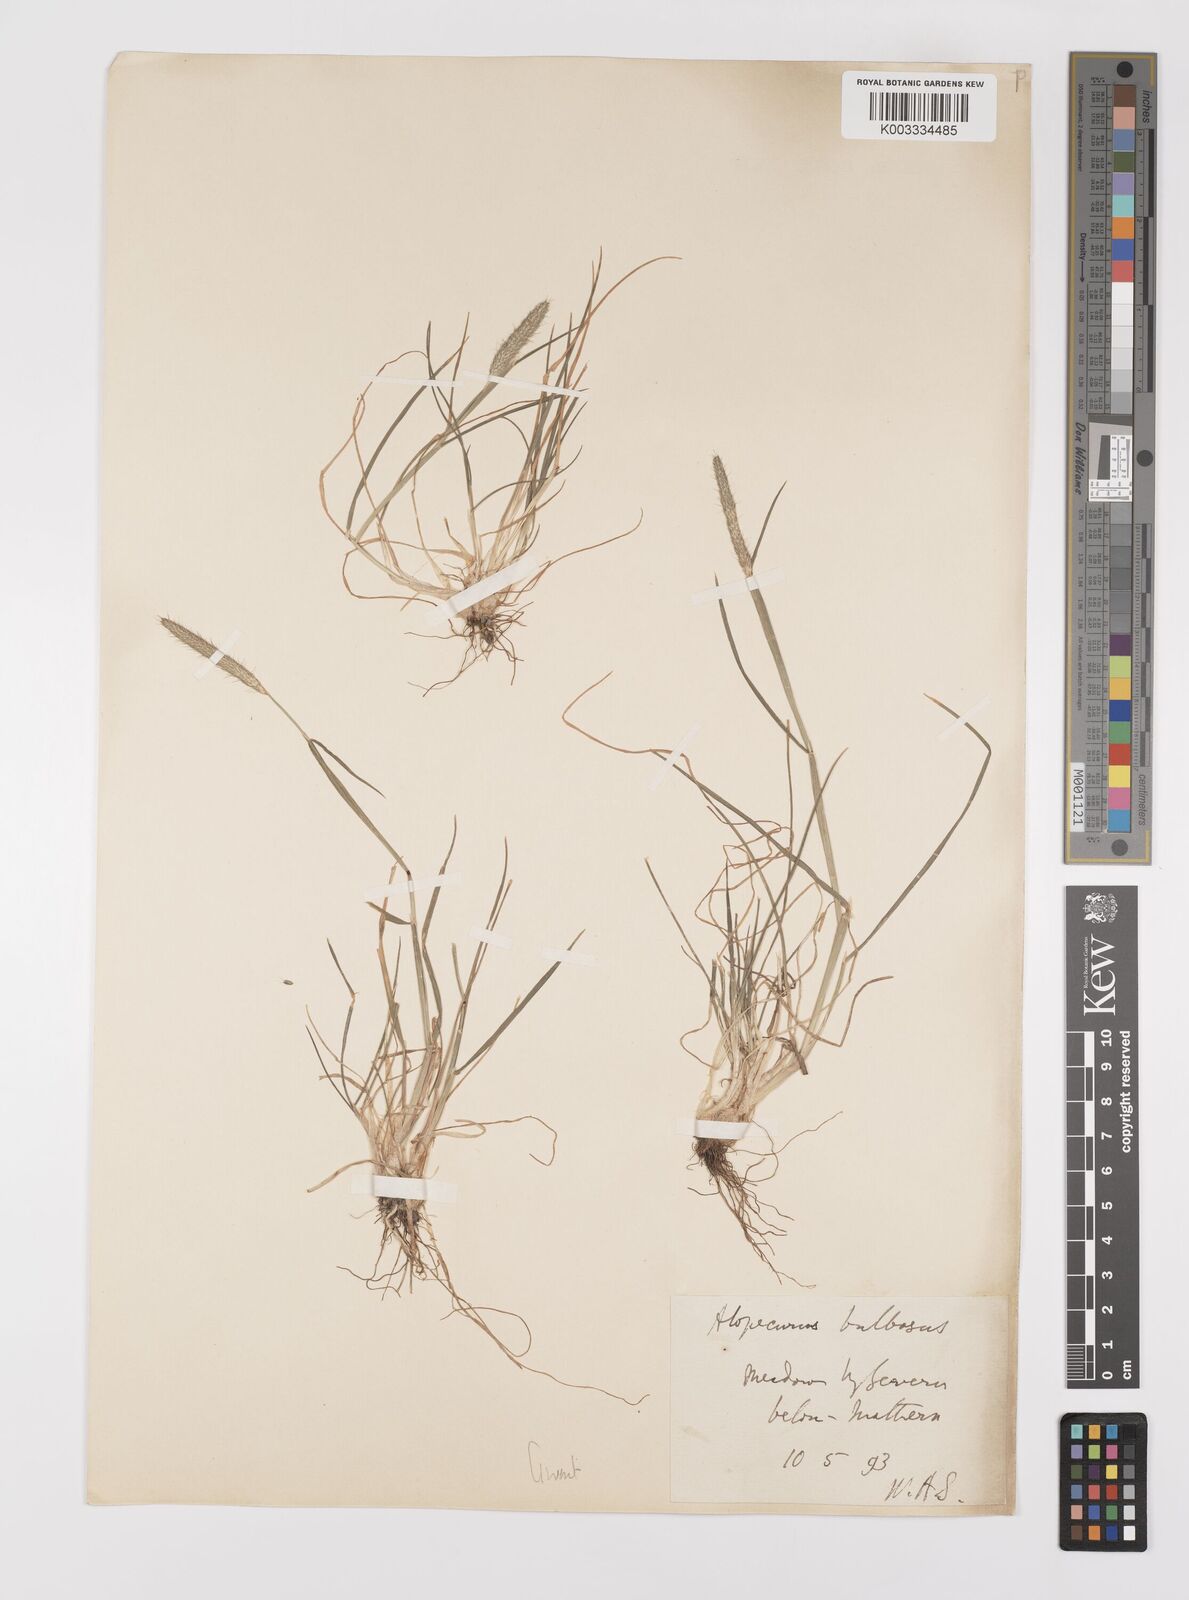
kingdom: Plantae
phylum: Tracheophyta
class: Liliopsida
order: Poales
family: Poaceae
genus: Alopecurus
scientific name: Alopecurus bulbosus
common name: Bulbous foxtail
